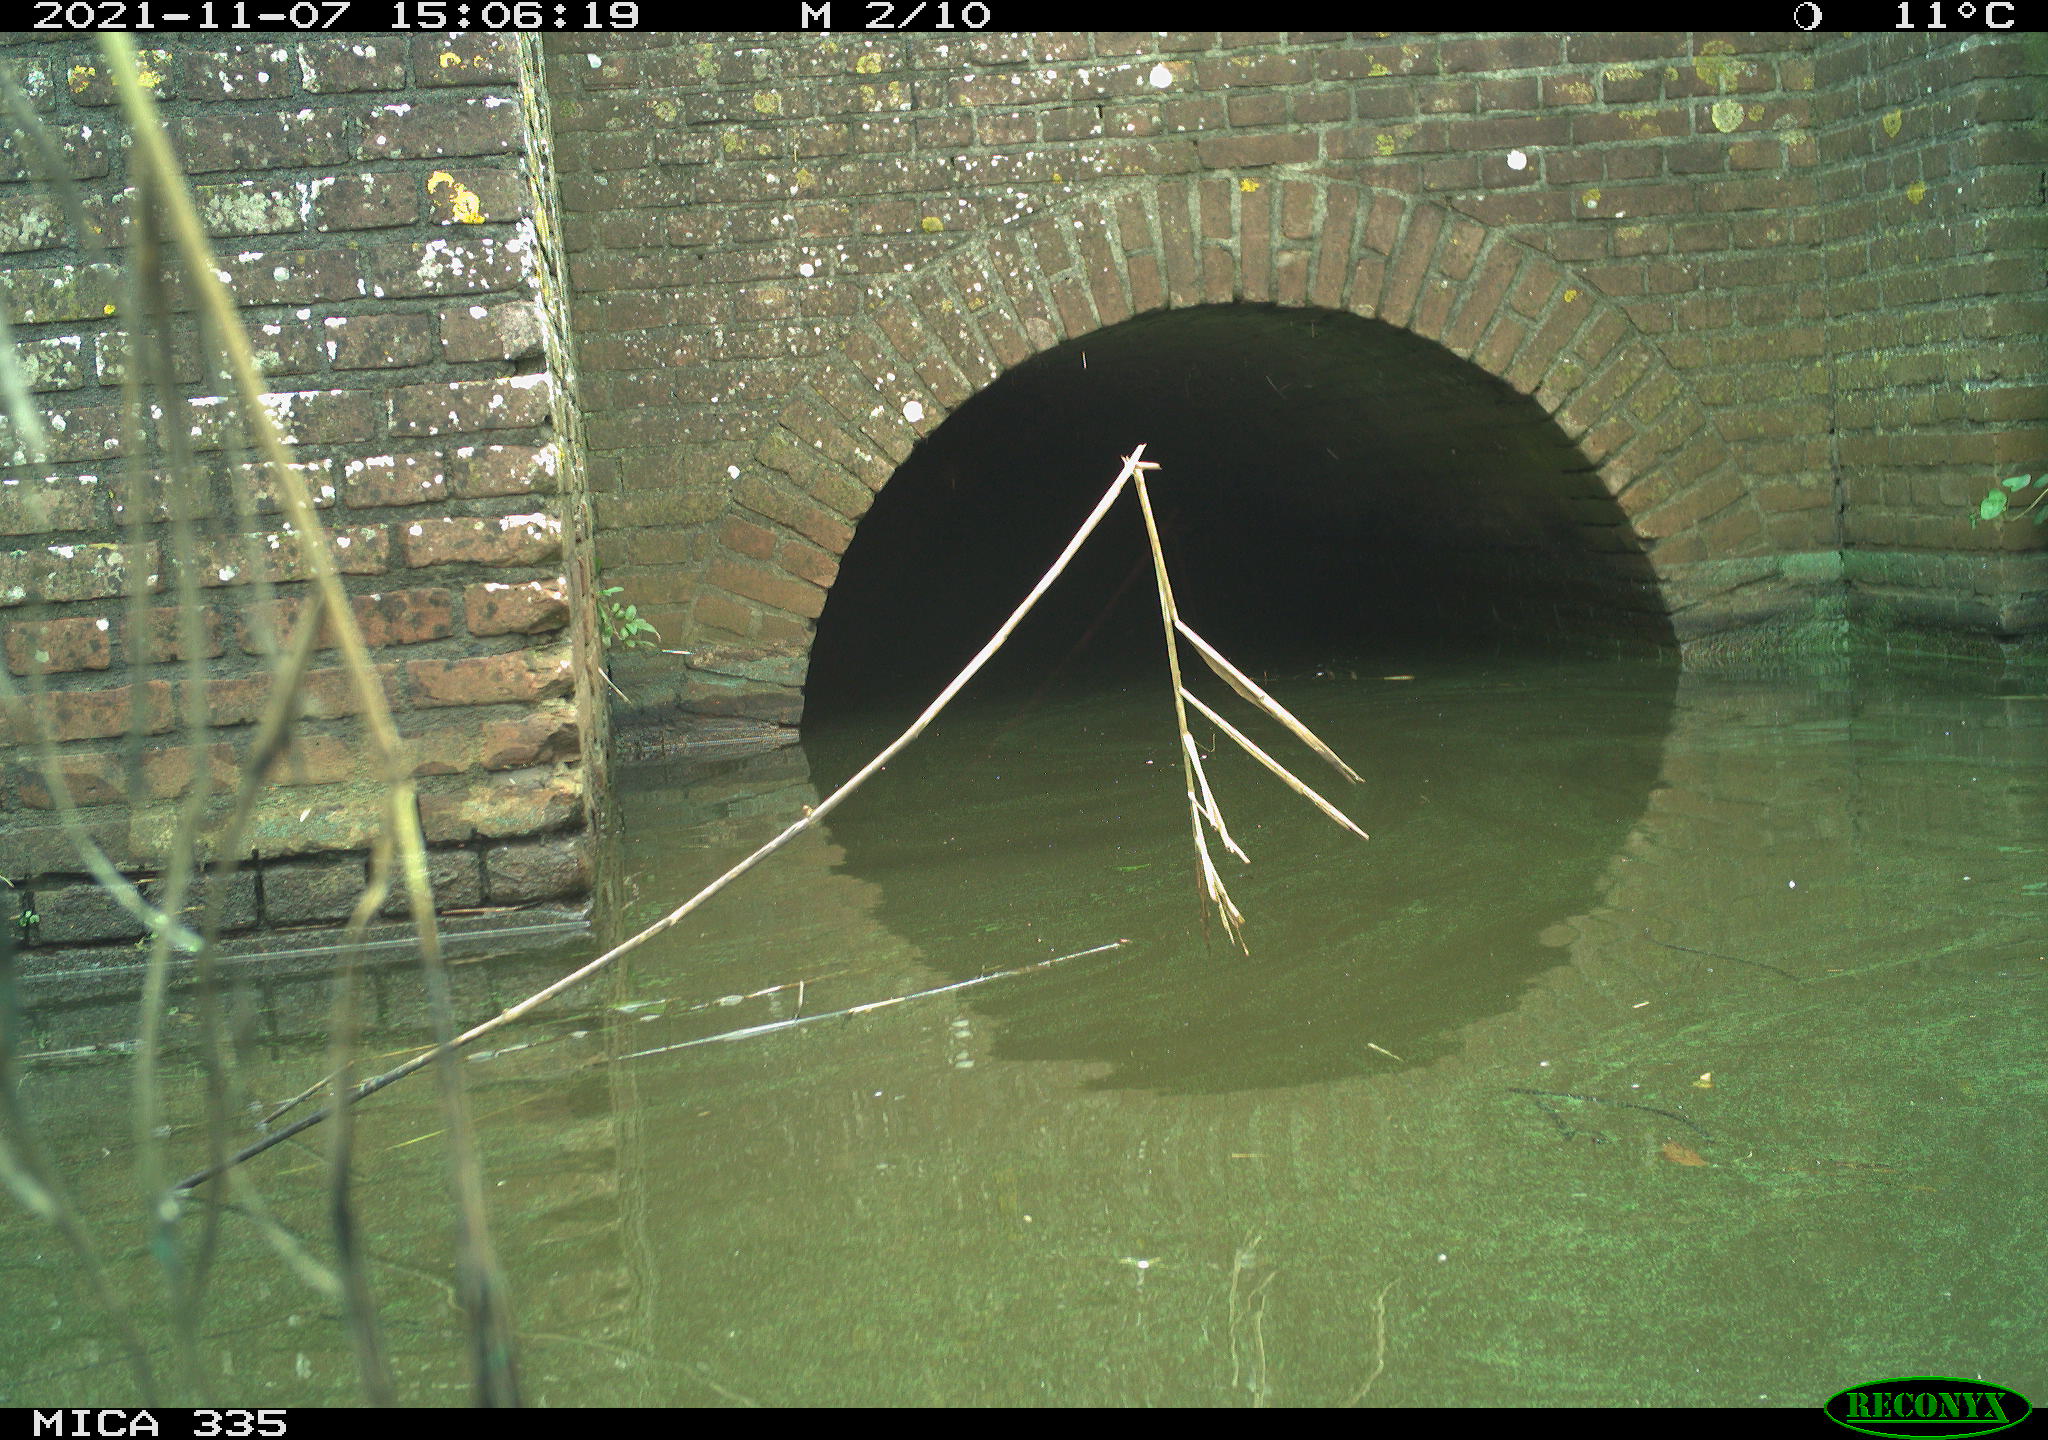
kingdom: Animalia
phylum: Chordata
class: Aves
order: Anseriformes
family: Anatidae
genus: Anas
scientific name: Anas platyrhynchos
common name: Mallard
